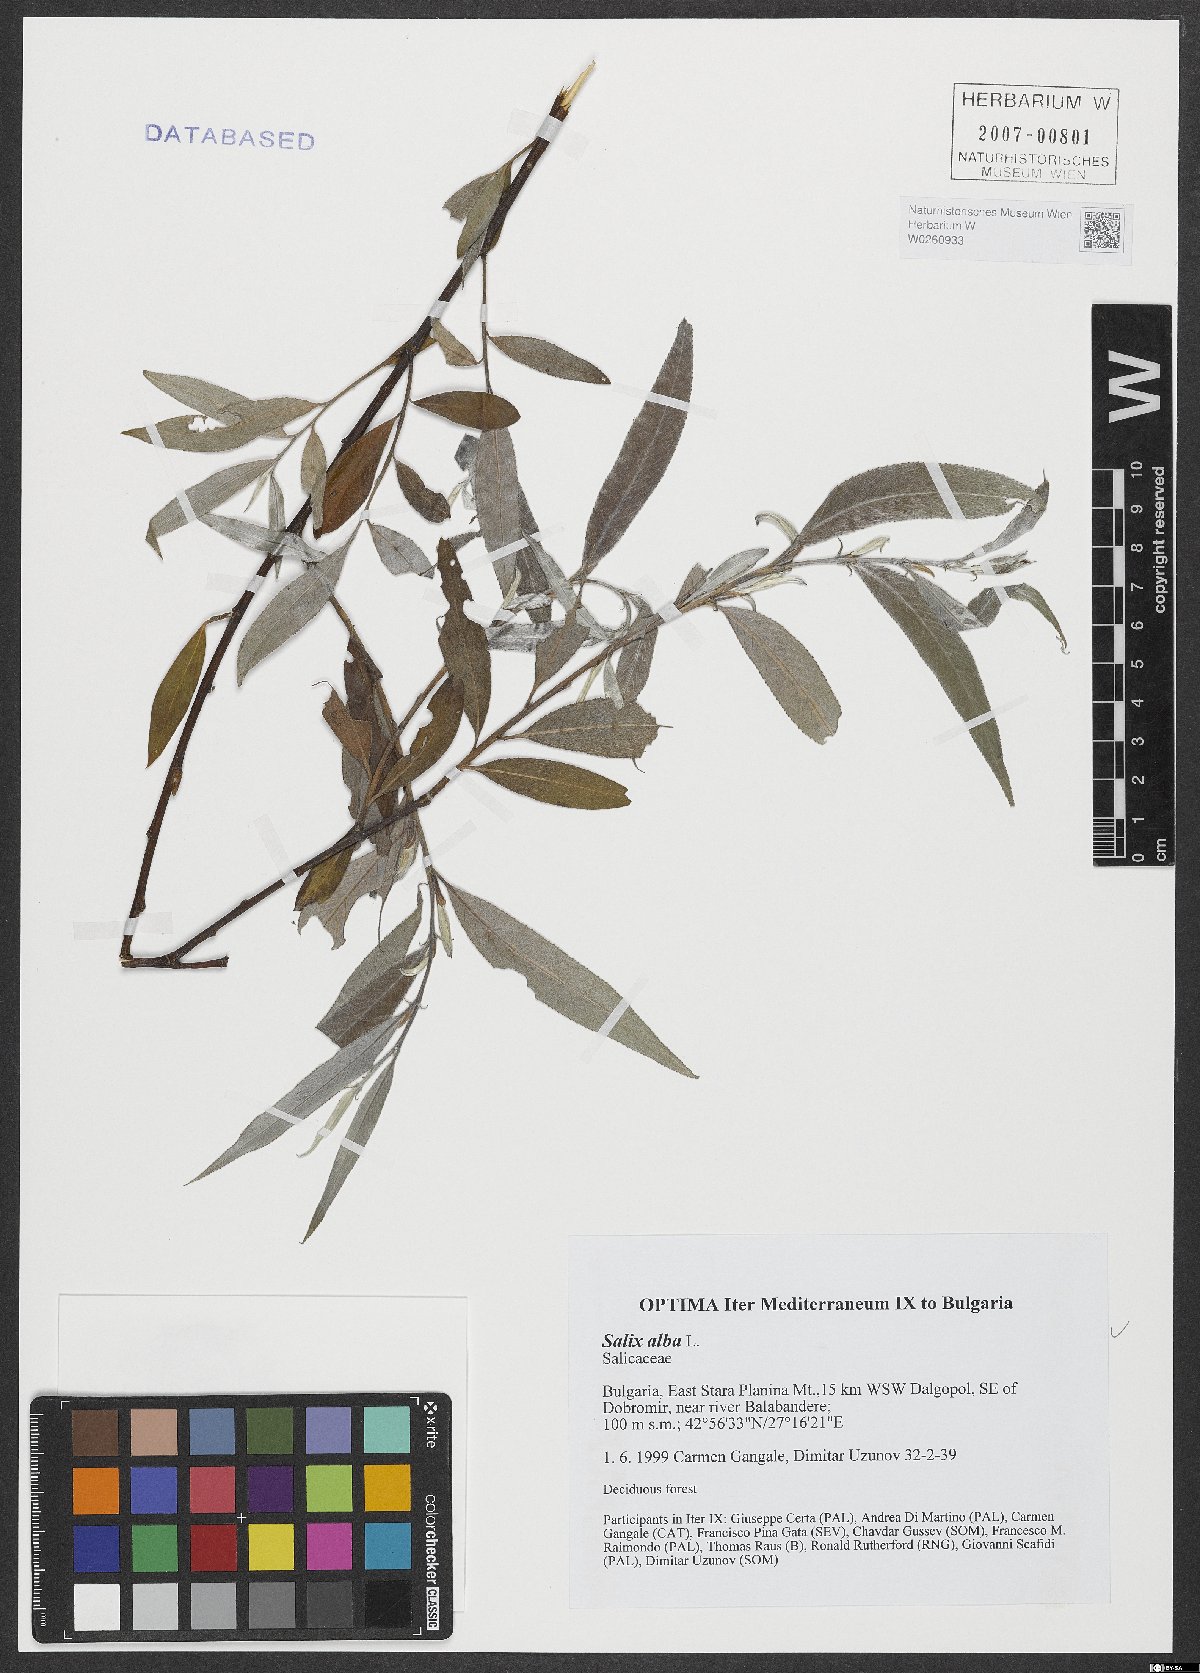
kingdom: Plantae
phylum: Tracheophyta
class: Magnoliopsida
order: Malpighiales
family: Salicaceae
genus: Salix
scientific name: Salix alba
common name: White willow
